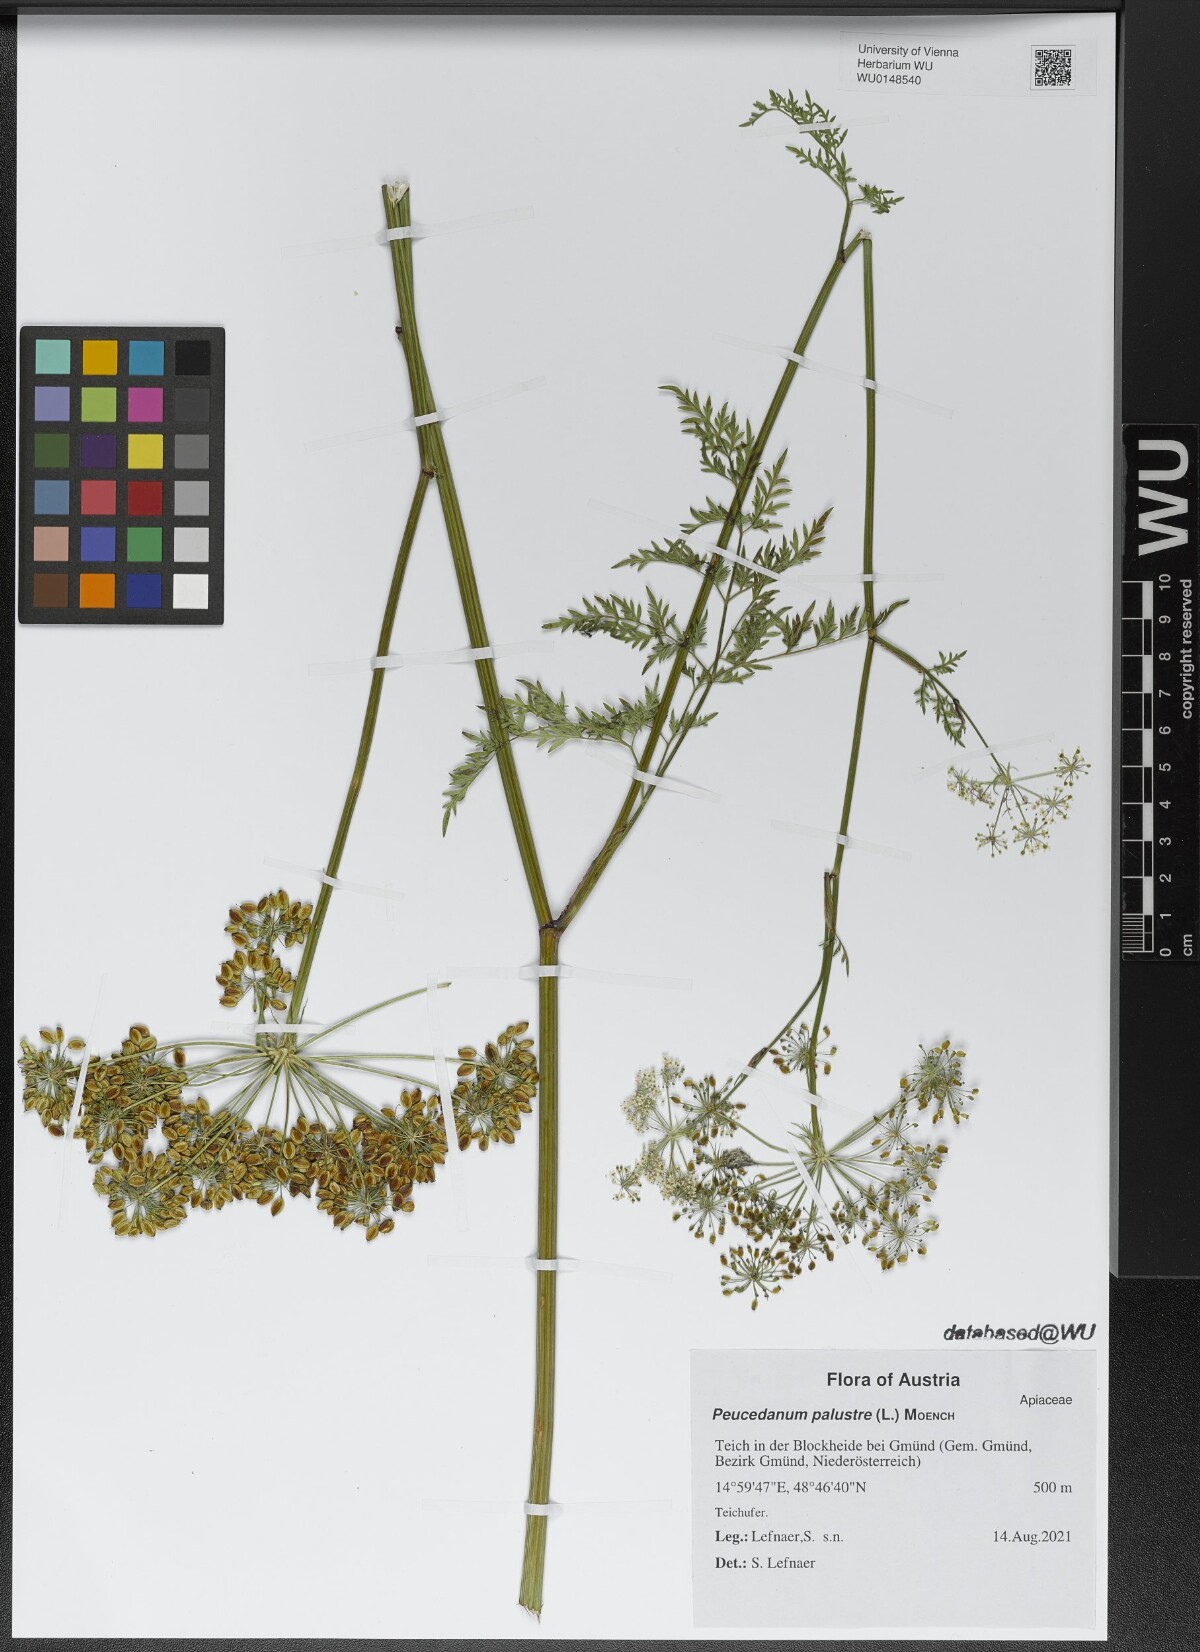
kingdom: Plantae
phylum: Tracheophyta
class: Magnoliopsida
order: Apiales
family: Apiaceae
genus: Thysselinum
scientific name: Thysselinum palustre
